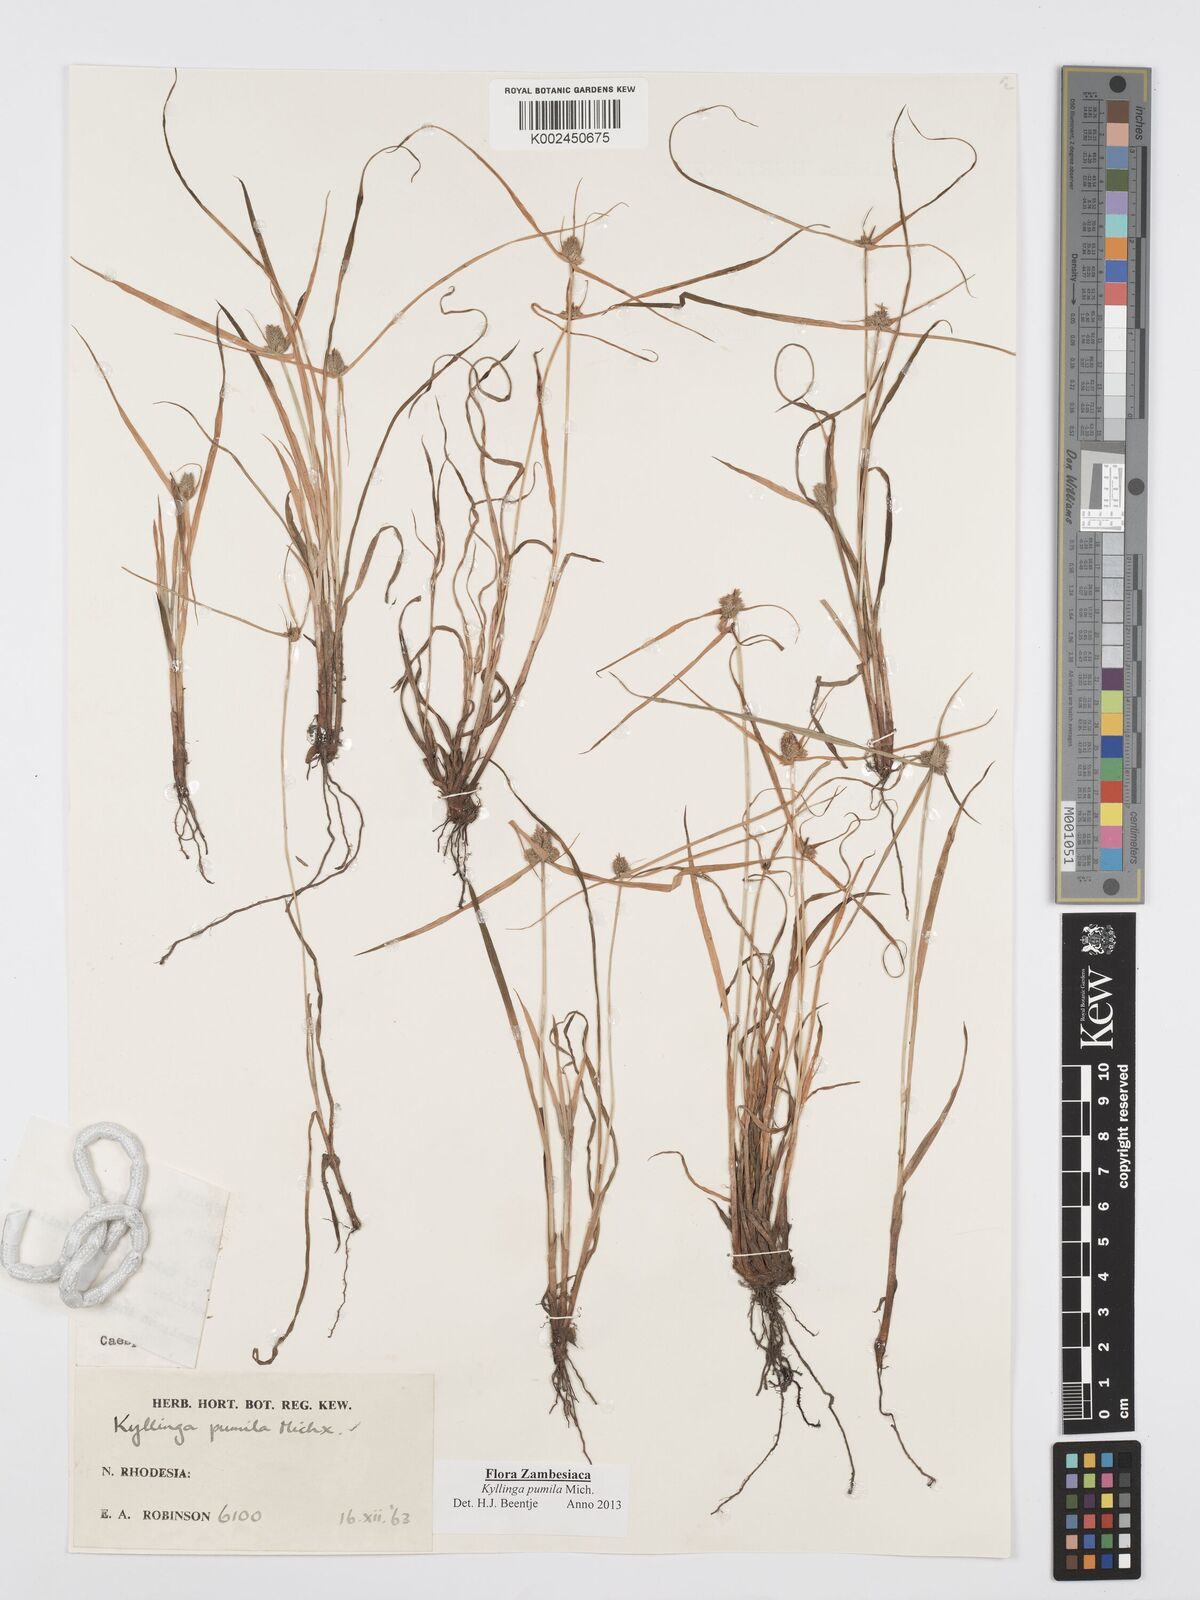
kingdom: Plantae
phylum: Tracheophyta
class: Liliopsida
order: Poales
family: Cyperaceae
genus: Cyperus
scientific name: Cyperus pumilus
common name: Low flatsedge
